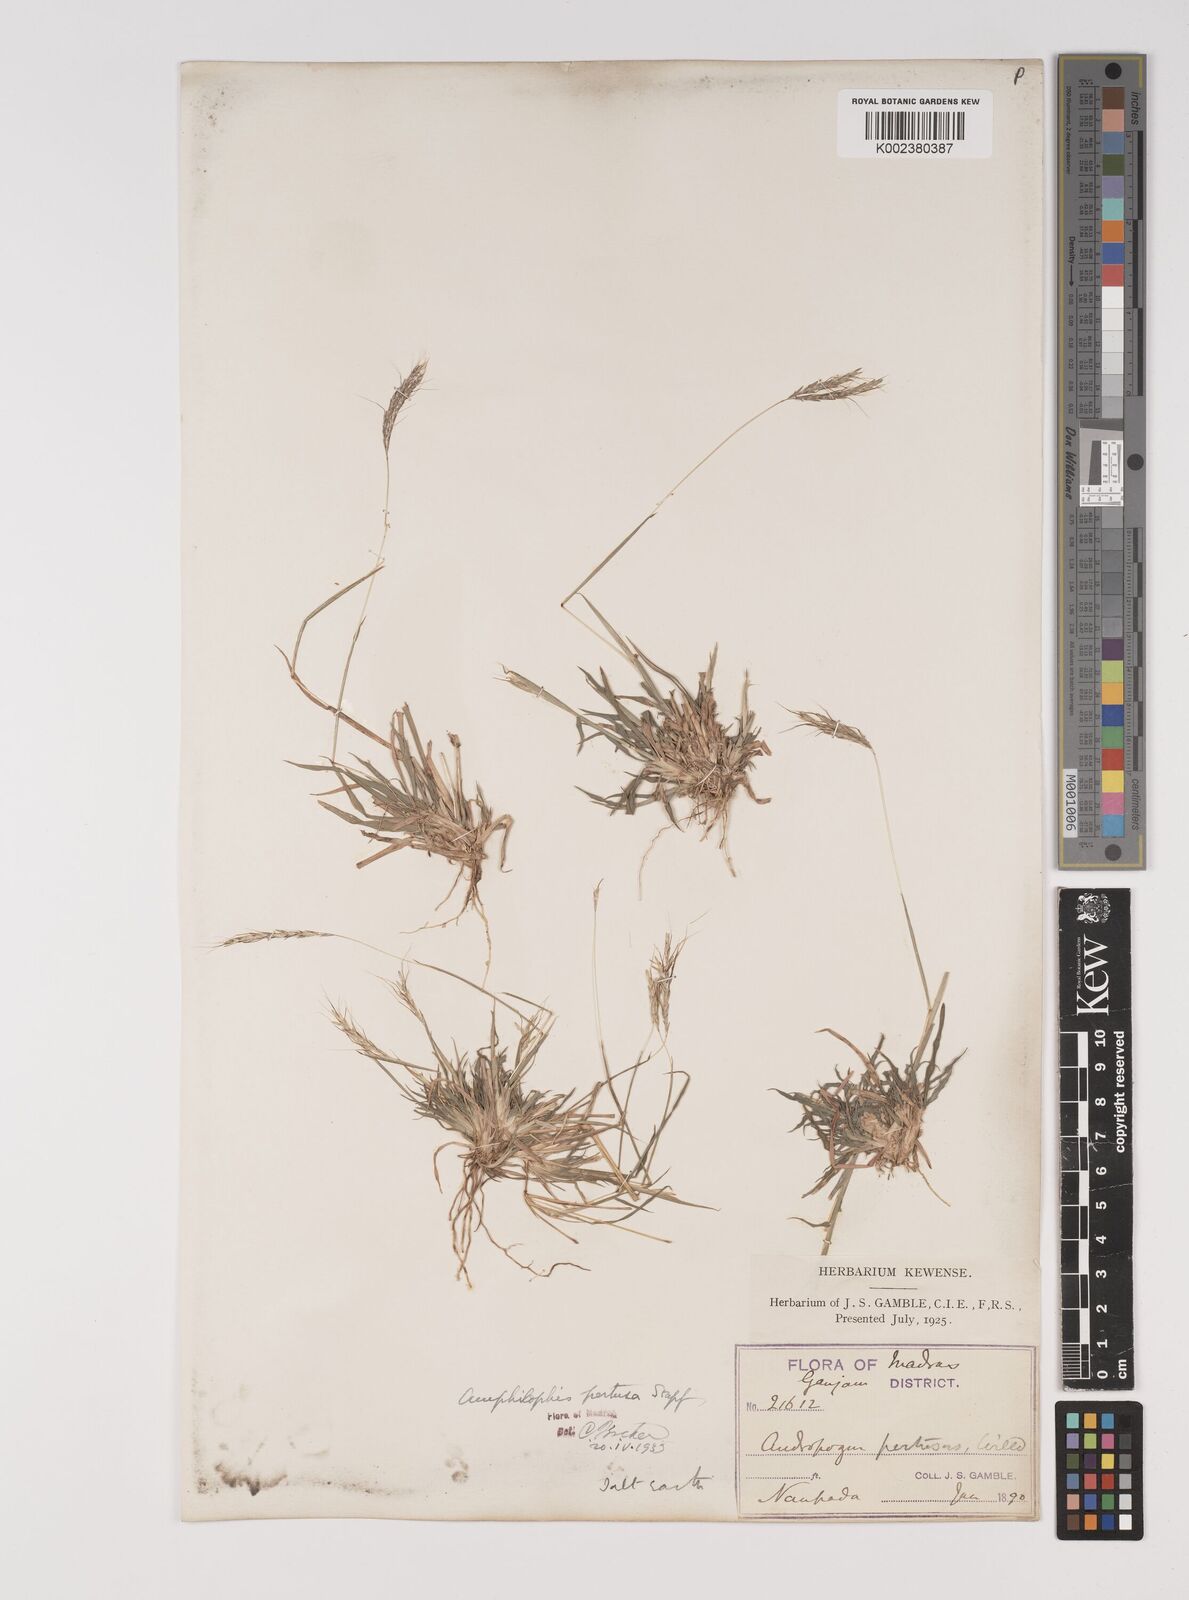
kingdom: Plantae
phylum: Tracheophyta
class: Liliopsida
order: Poales
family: Poaceae
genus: Bothriochloa
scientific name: Bothriochloa pertusa
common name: Pitted beardgrass
